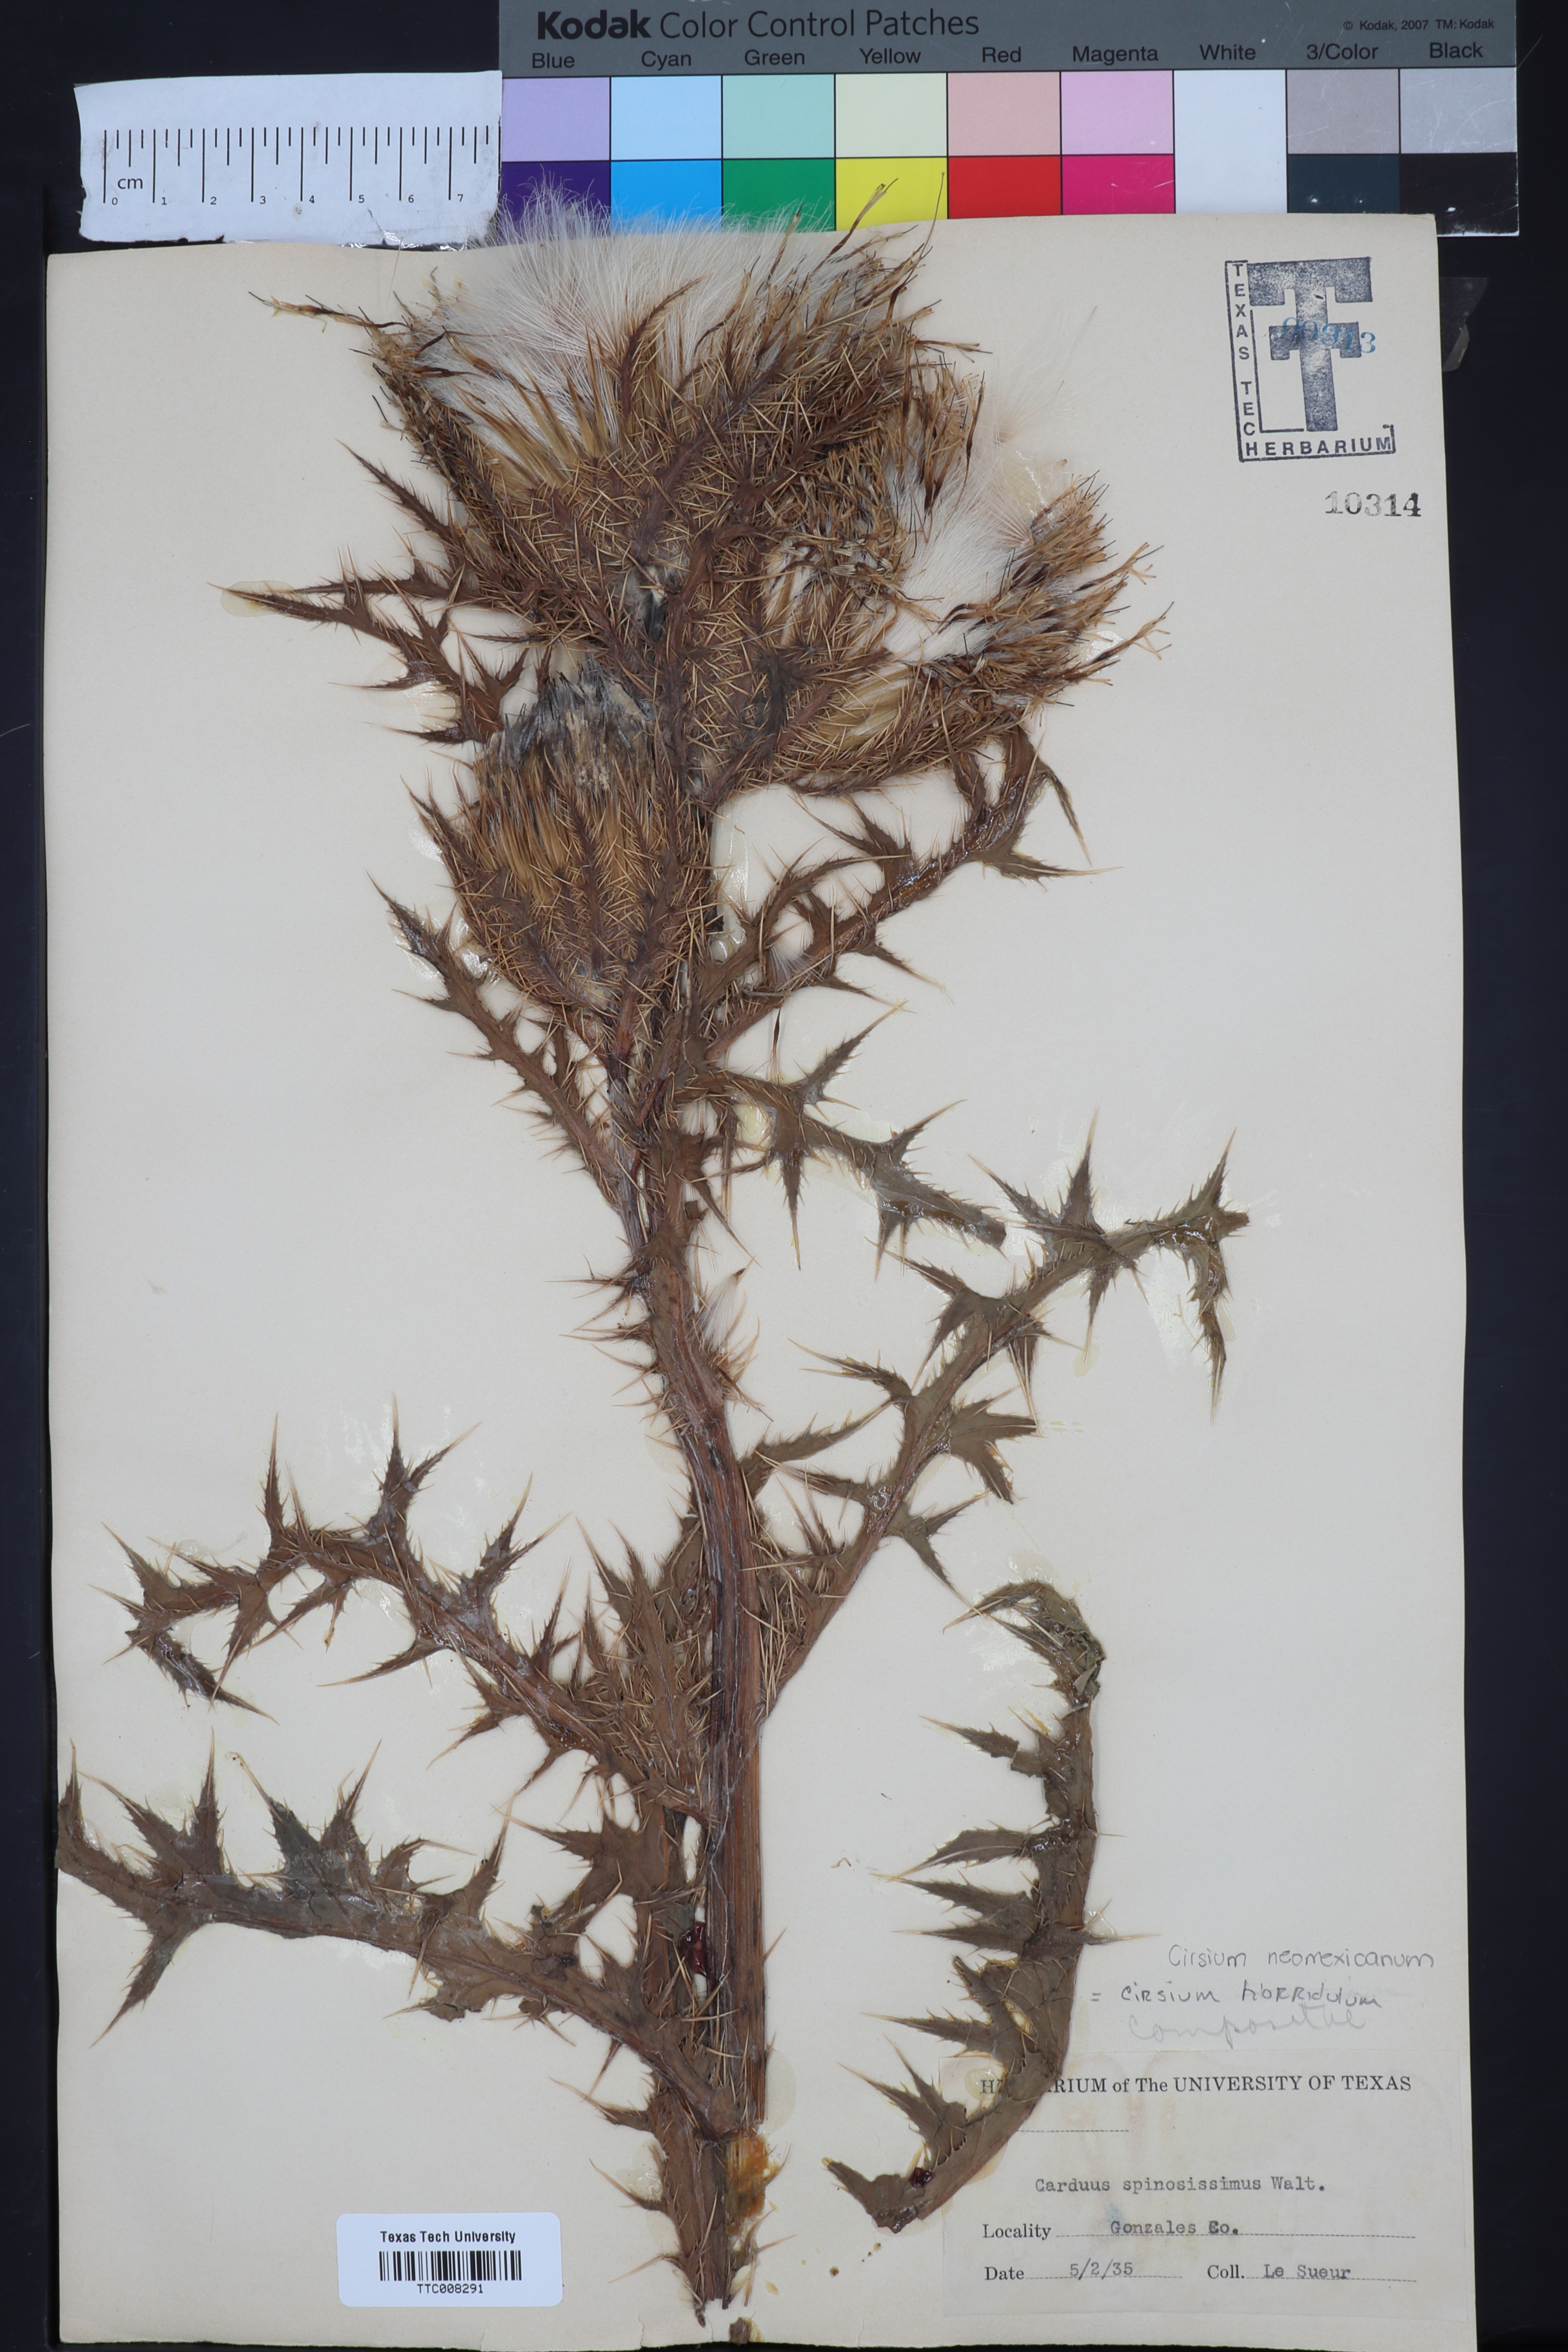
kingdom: Plantae
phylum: Tracheophyta
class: Magnoliopsida
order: Asterales
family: Asteraceae
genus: Cirsium
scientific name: Cirsium horridulum
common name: Bristly thistle
